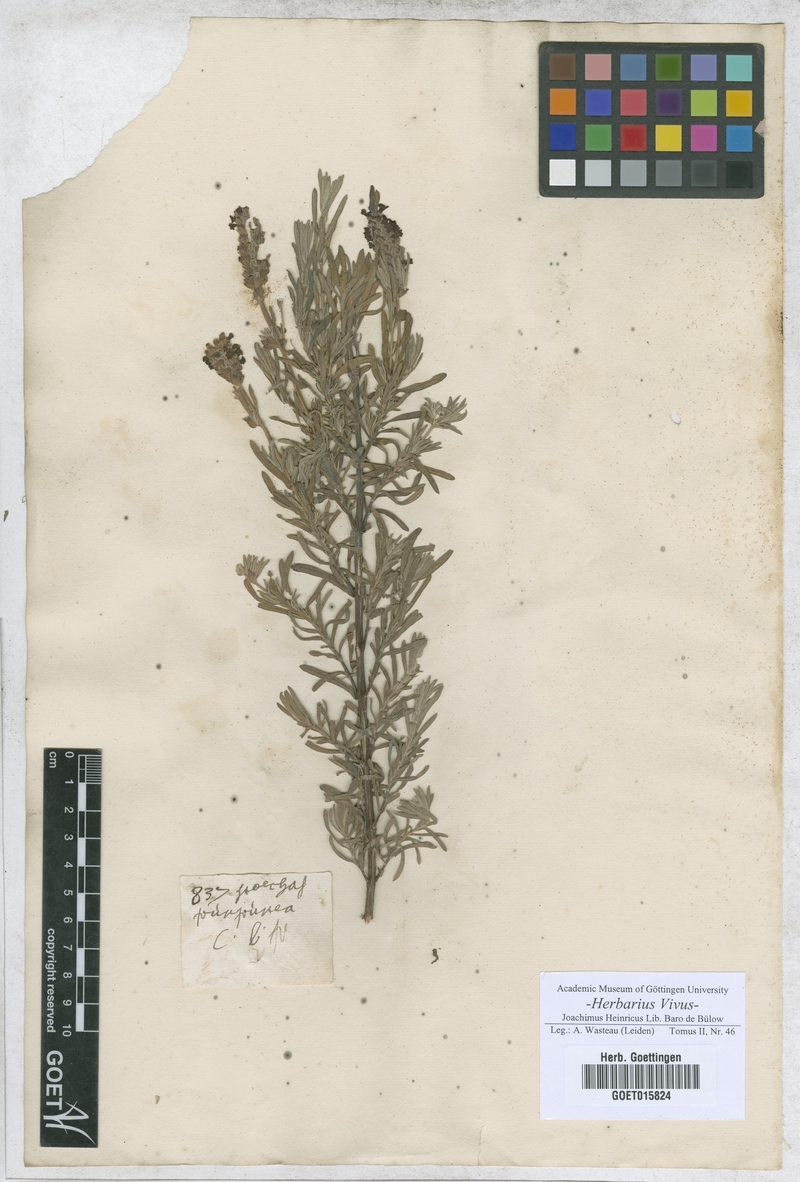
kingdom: Plantae
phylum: Tracheophyta
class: Magnoliopsida
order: Asterales
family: Asteraceae
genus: Stoechas
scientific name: Stoechas
